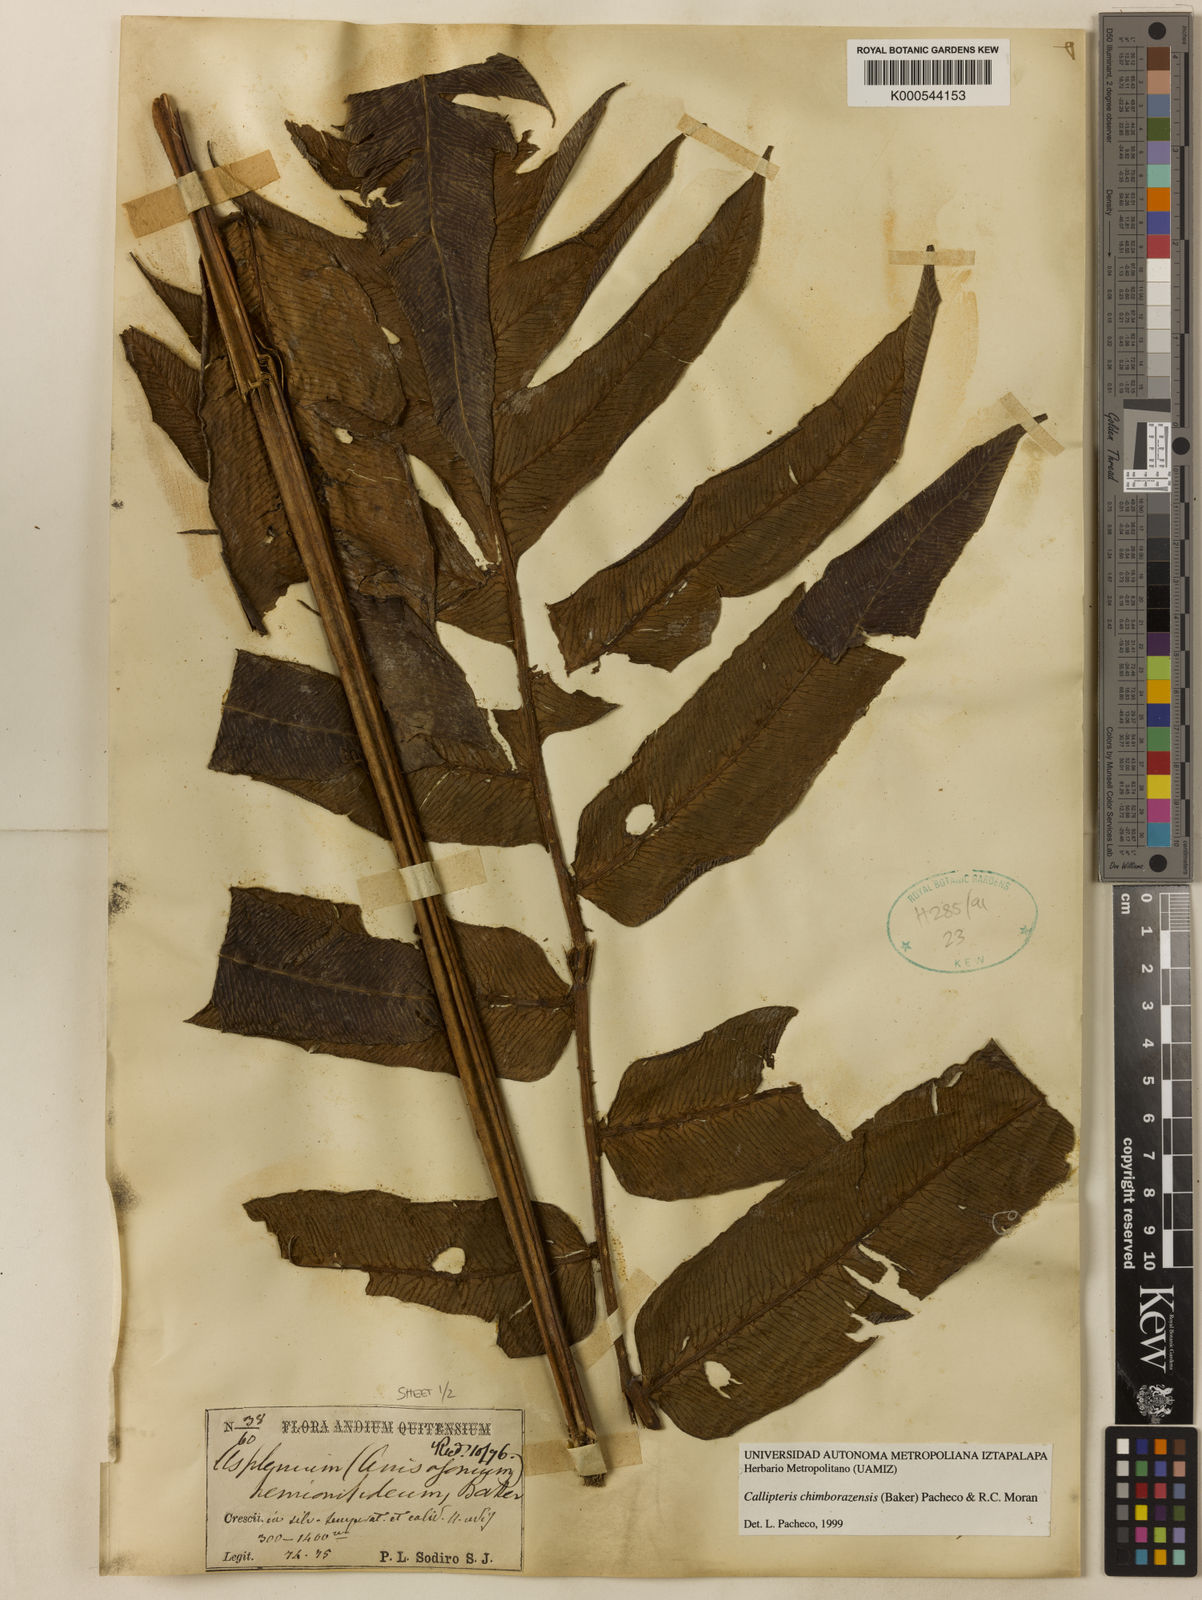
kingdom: Plantae
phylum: Tracheophyta
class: Polypodiopsida
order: Polypodiales
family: Athyriaceae
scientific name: Athyriaceae
